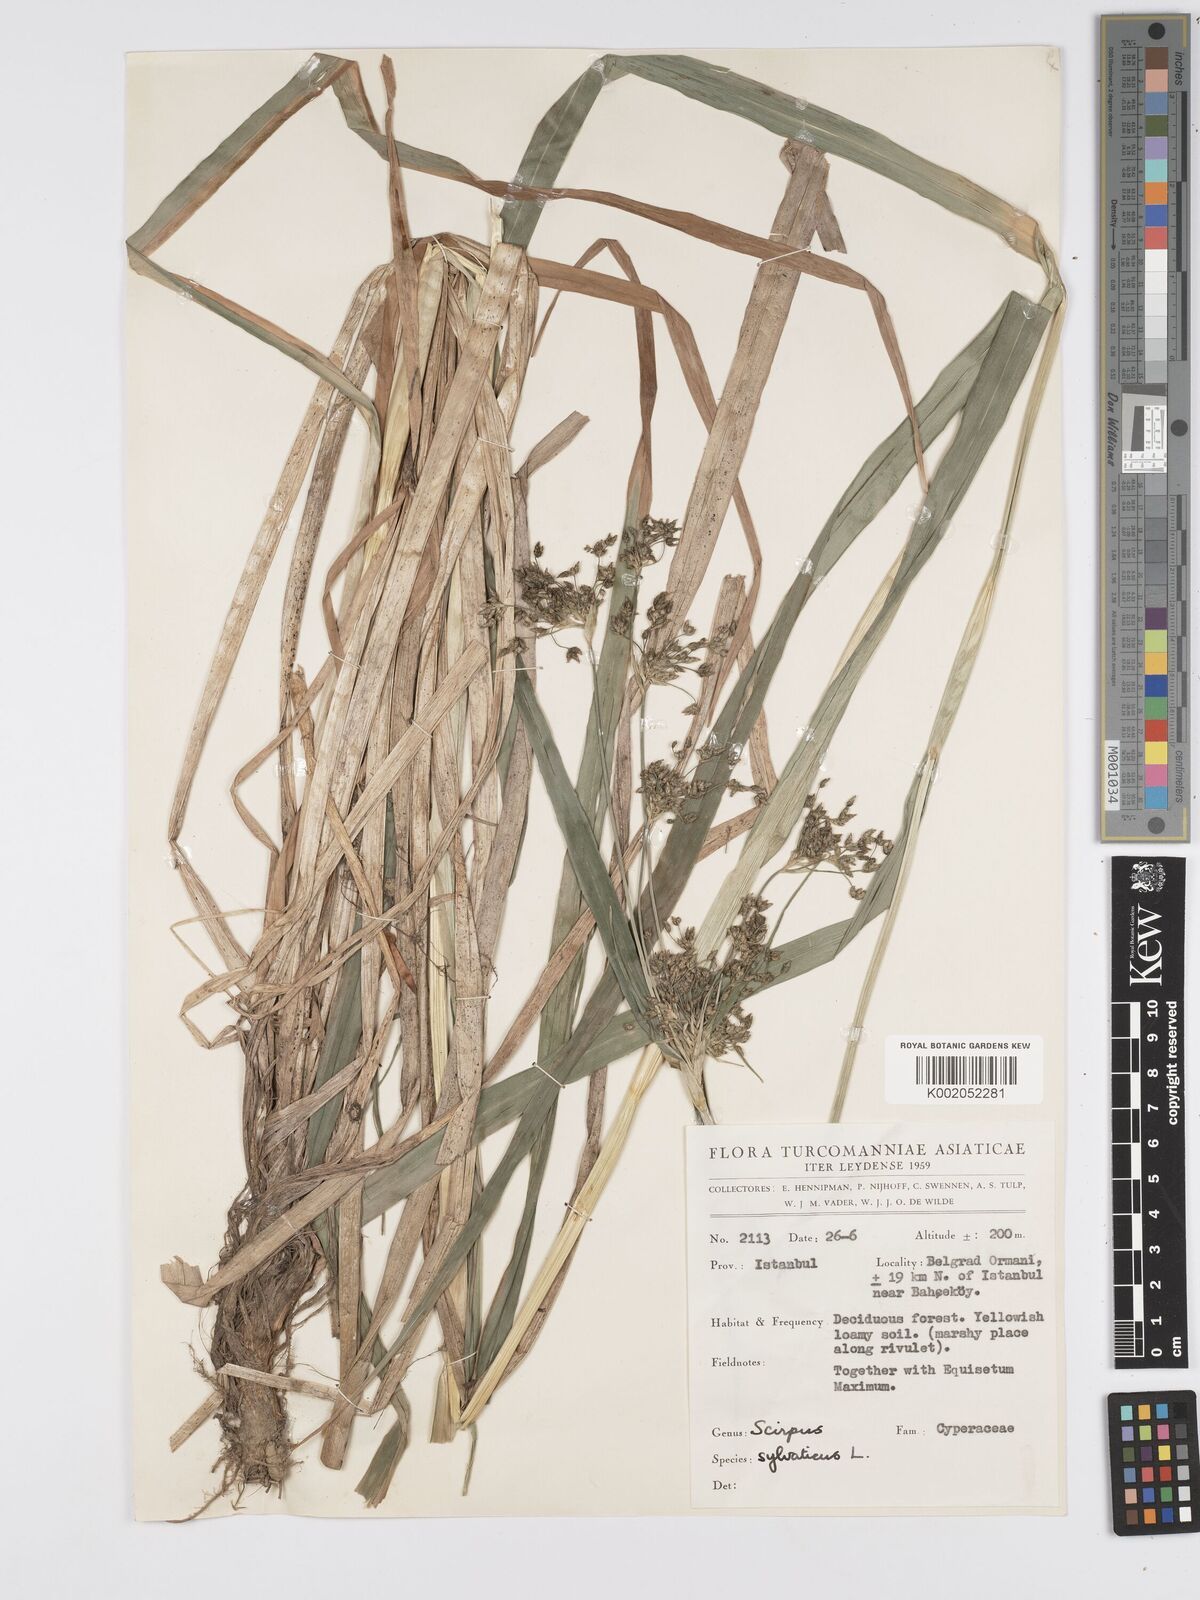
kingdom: Plantae
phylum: Tracheophyta
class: Liliopsida
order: Poales
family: Cyperaceae
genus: Scirpus
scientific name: Scirpus sylvaticus
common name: Wood club-rush
